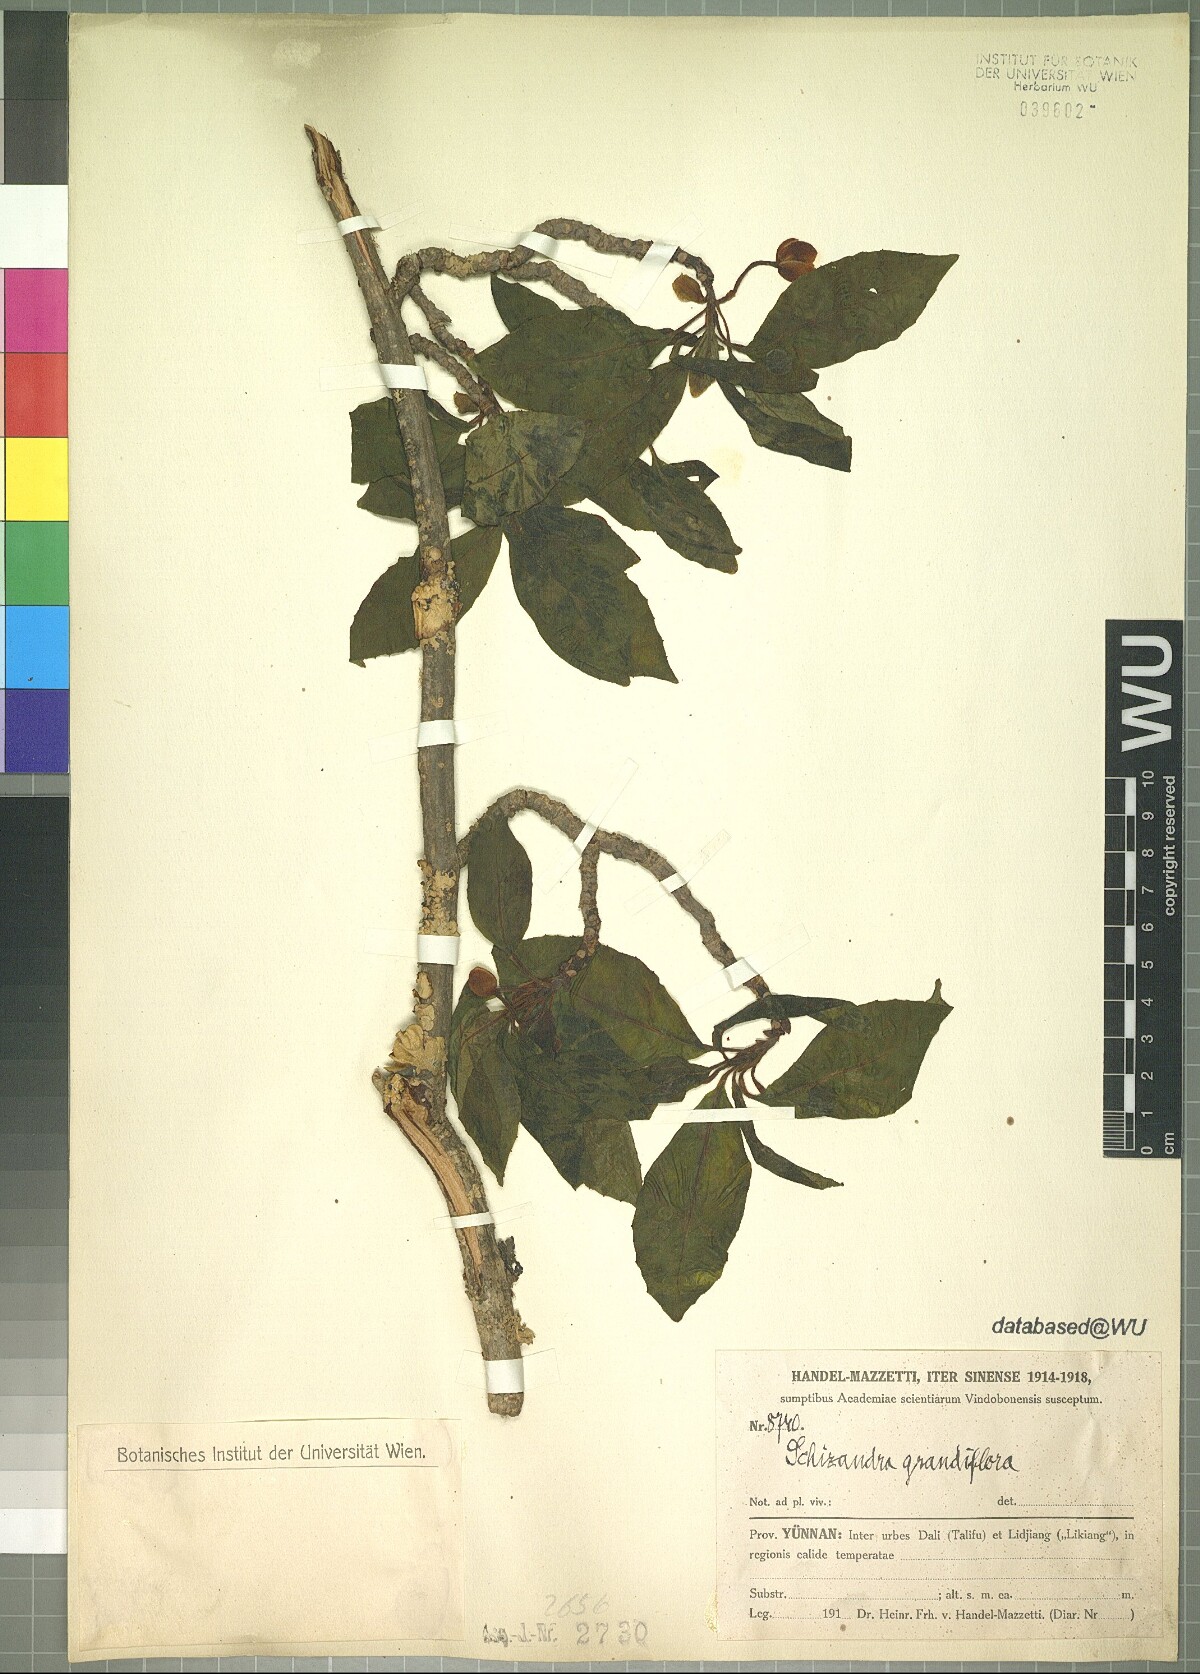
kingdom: Plantae
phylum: Tracheophyta
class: Magnoliopsida
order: Austrobaileyales
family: Schisandraceae
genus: Schisandra
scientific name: Schisandra grandiflora
